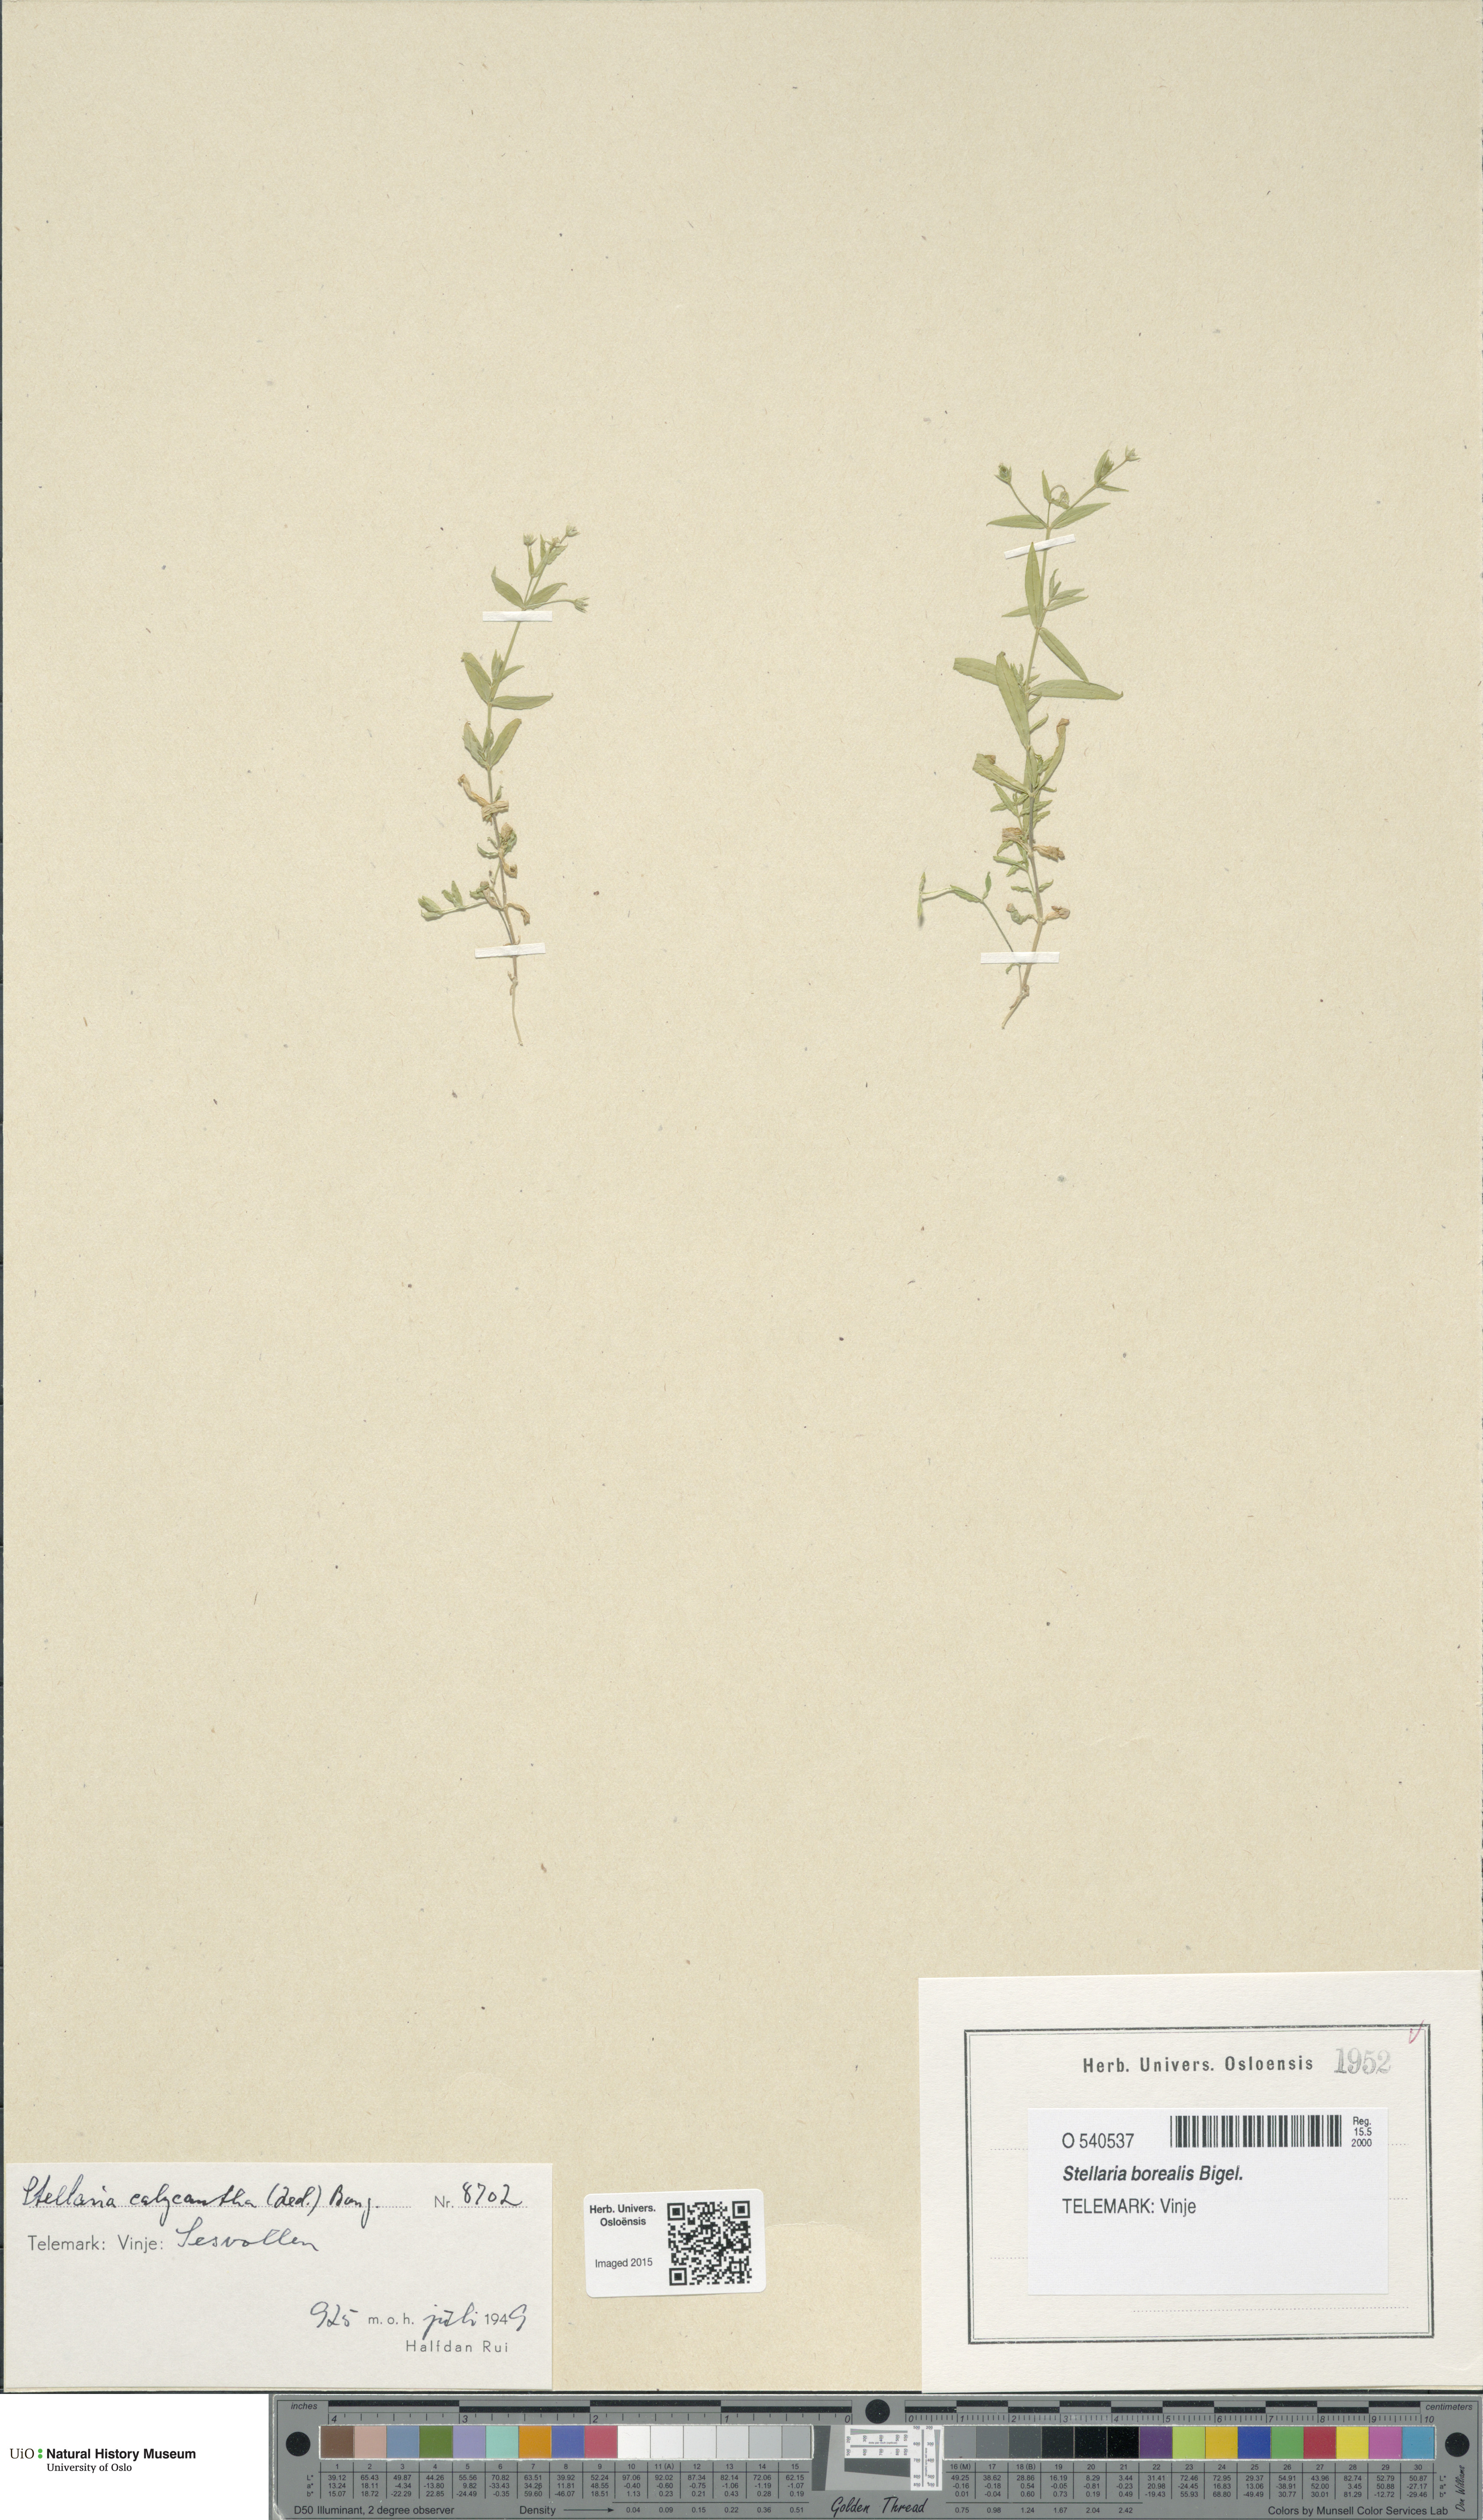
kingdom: Plantae
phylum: Tracheophyta
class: Magnoliopsida
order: Caryophyllales
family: Caryophyllaceae
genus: Stellaria
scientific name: Stellaria borealis
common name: Boreal starwort
